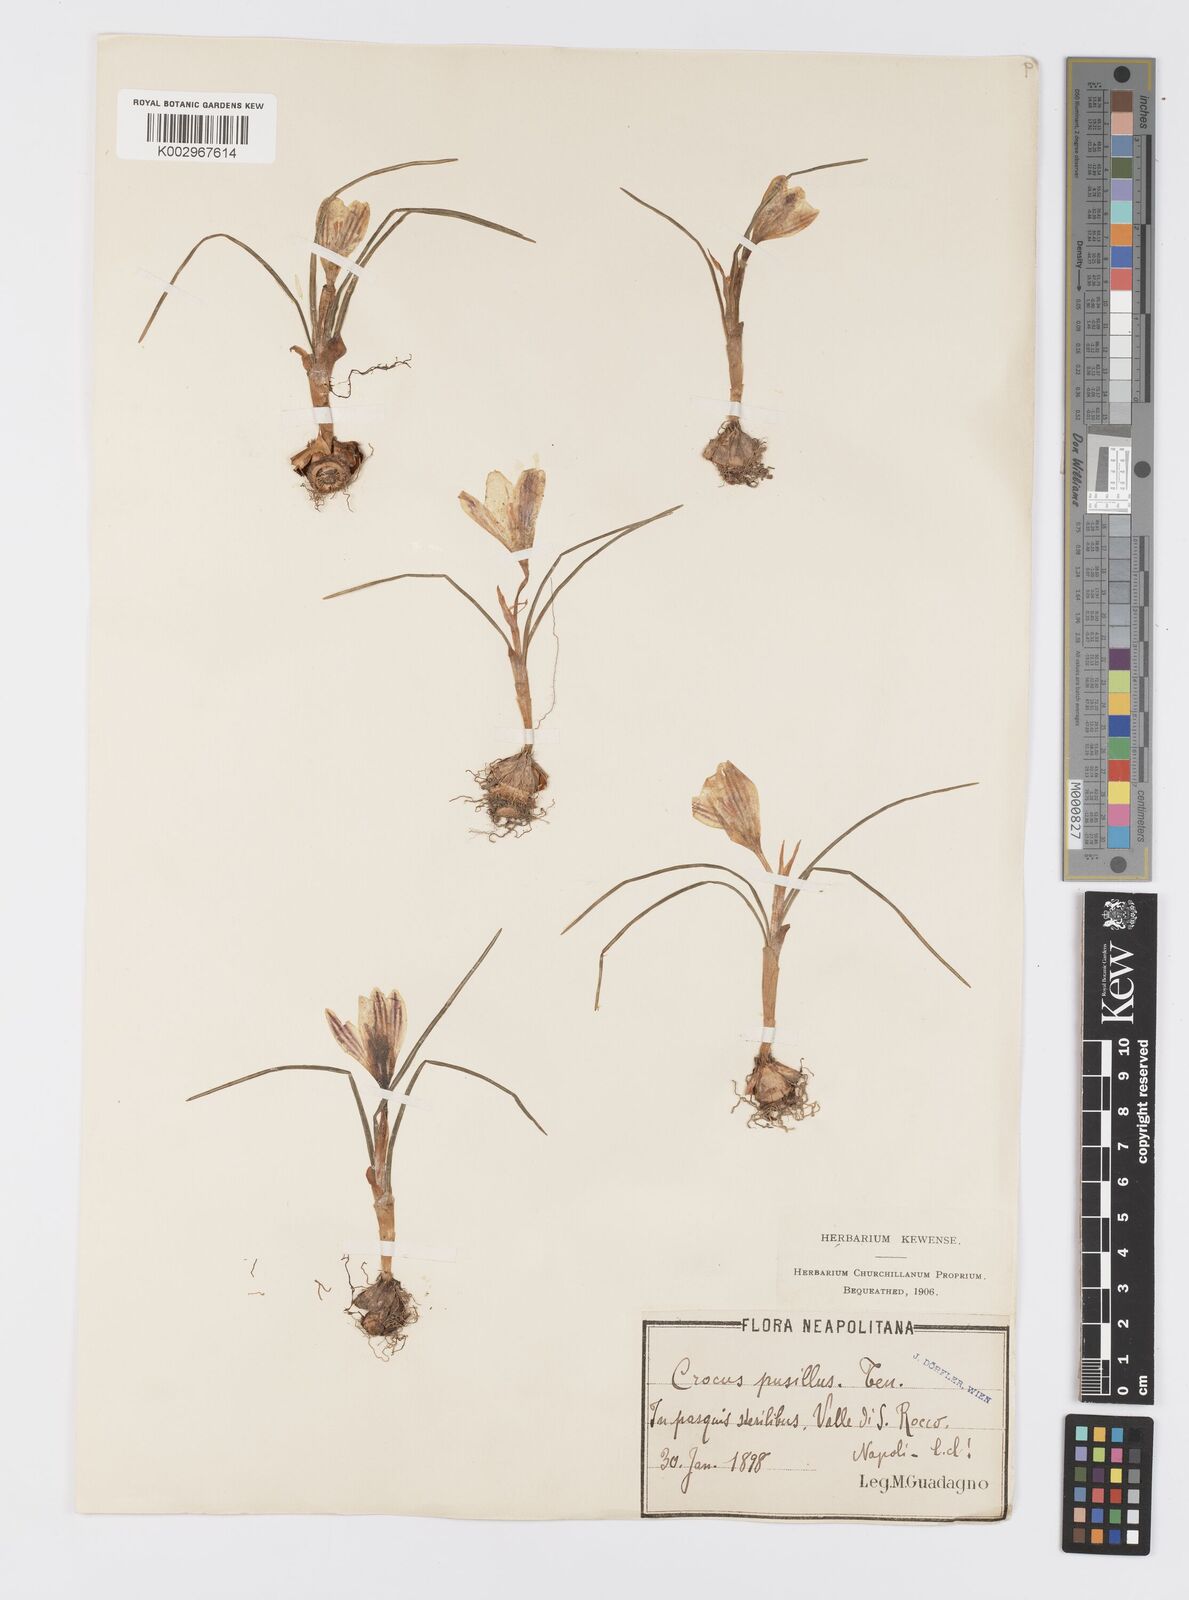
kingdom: Plantae
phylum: Tracheophyta
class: Liliopsida
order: Asparagales
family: Iridaceae
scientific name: Iridaceae
